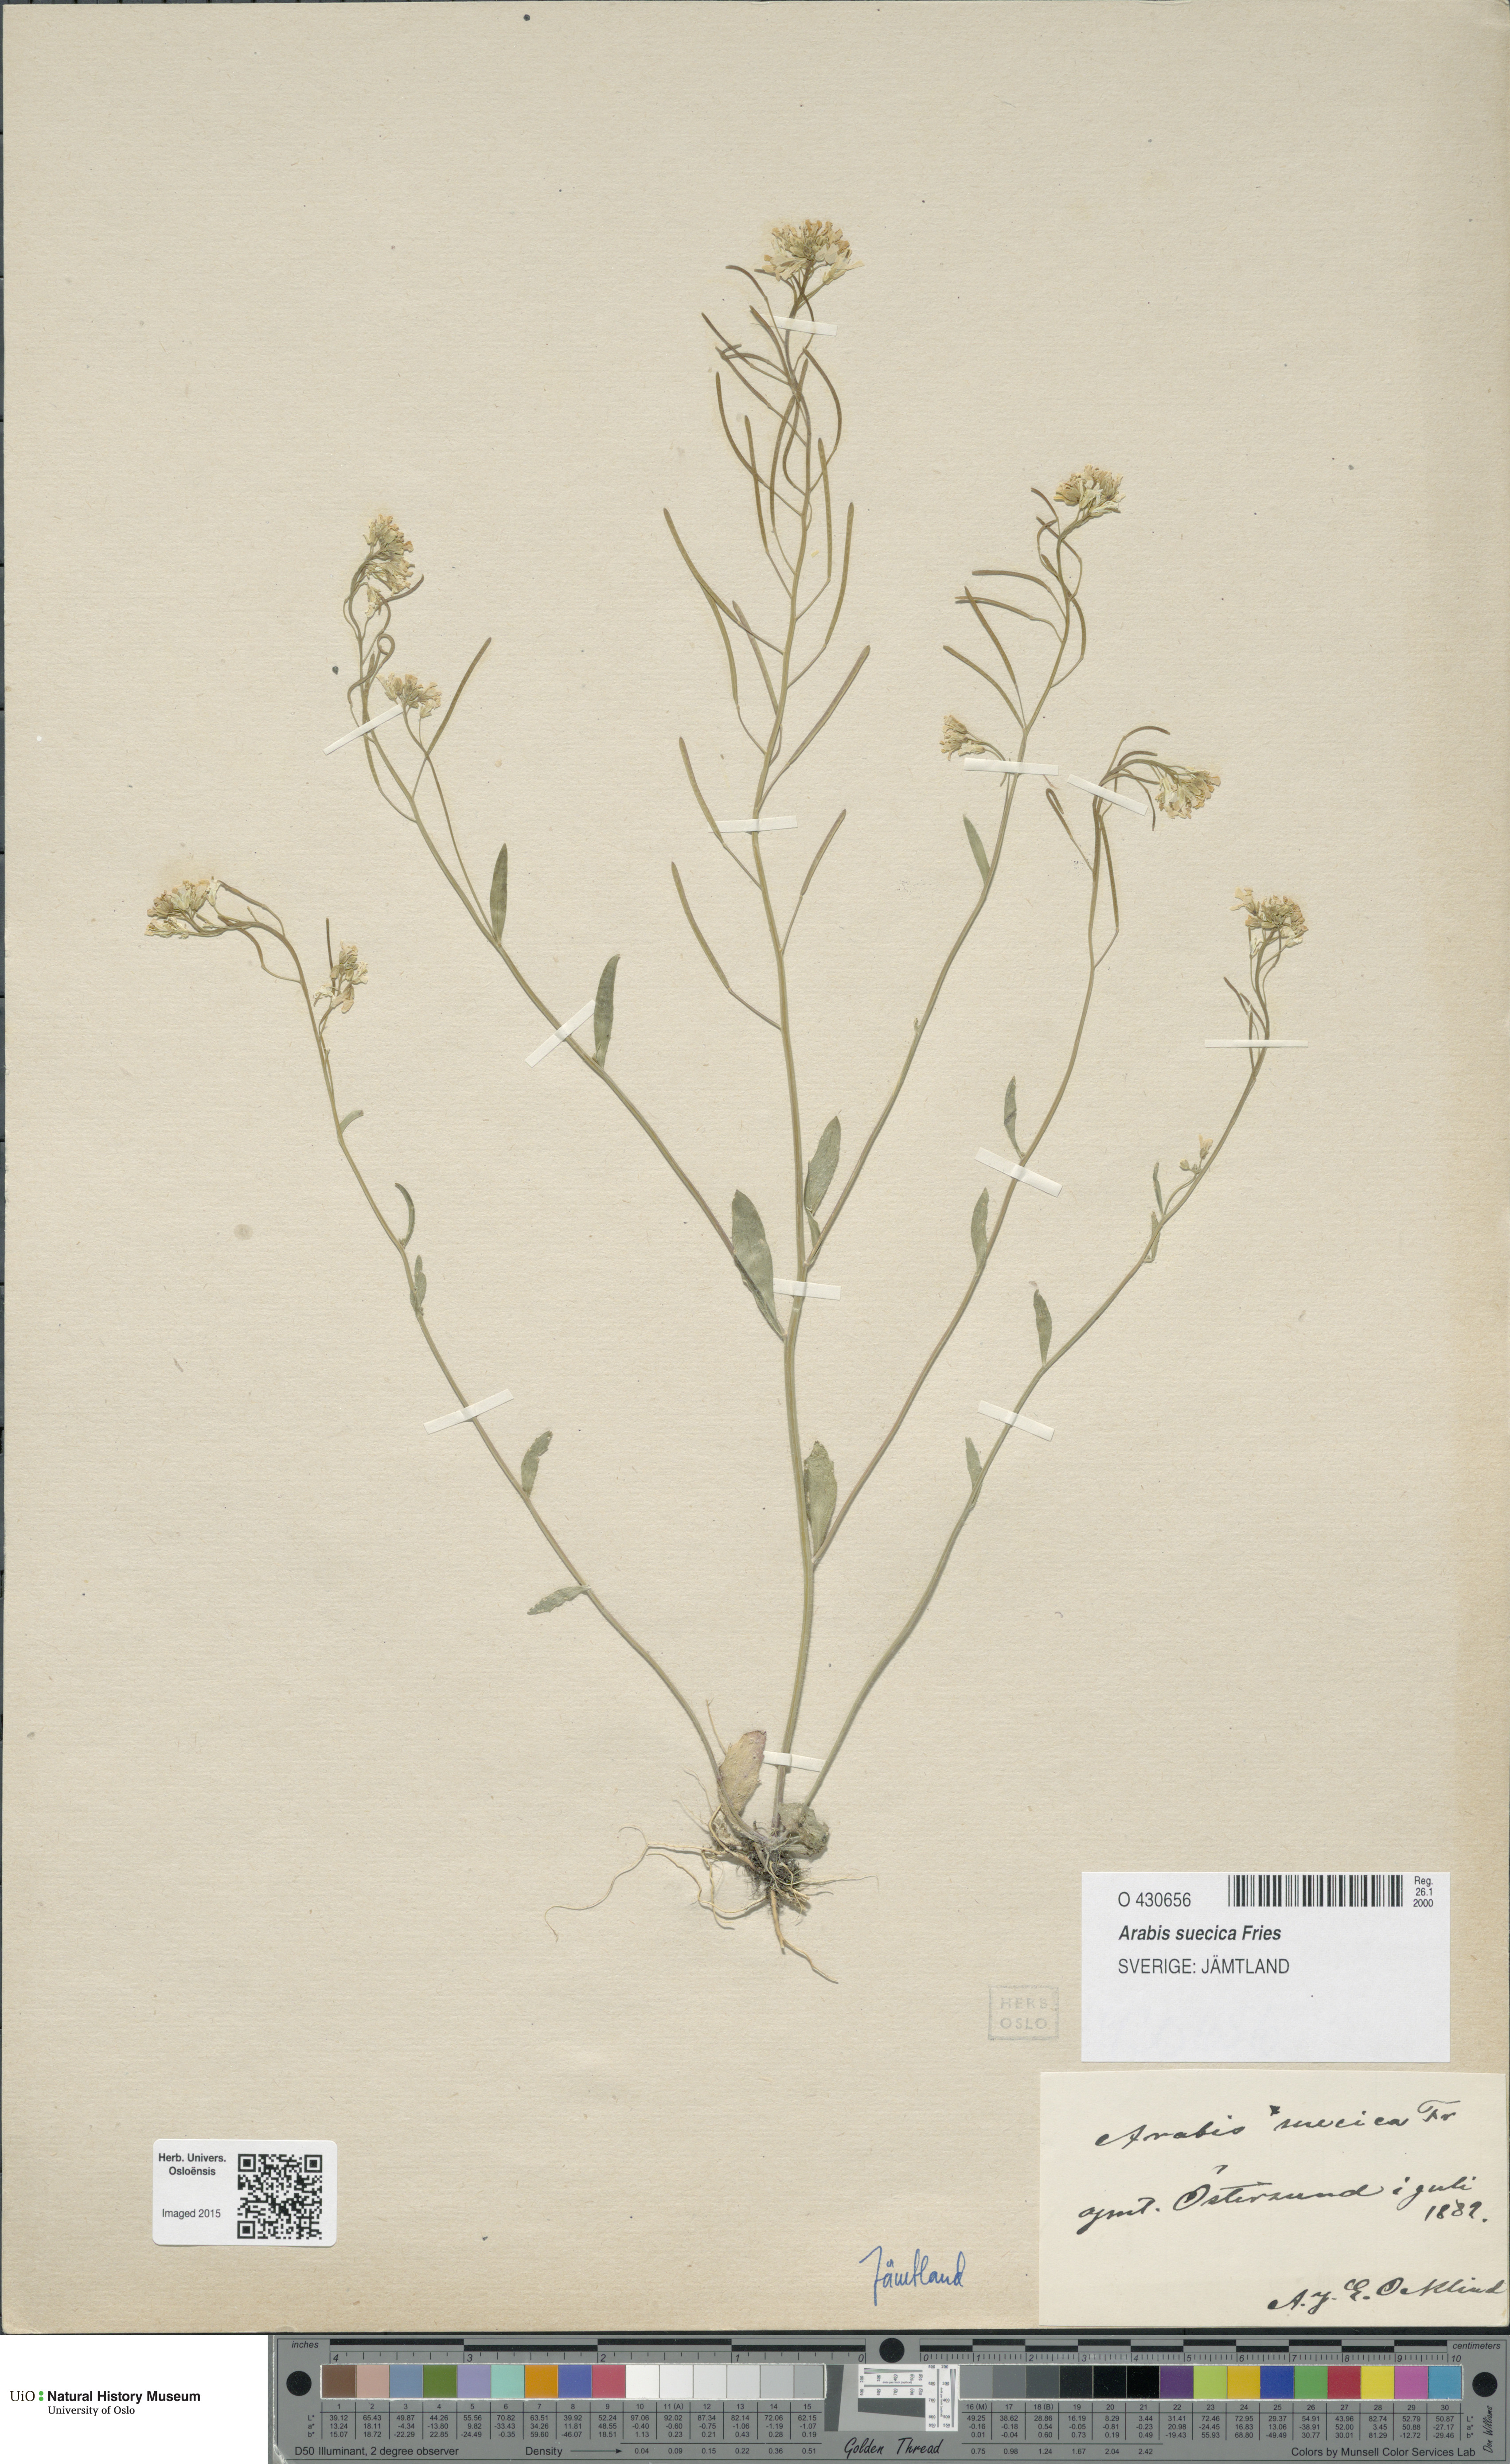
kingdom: Plantae
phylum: Tracheophyta
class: Magnoliopsida
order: Brassicales
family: Brassicaceae
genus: Arabidopsis
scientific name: Arabidopsis suecica
